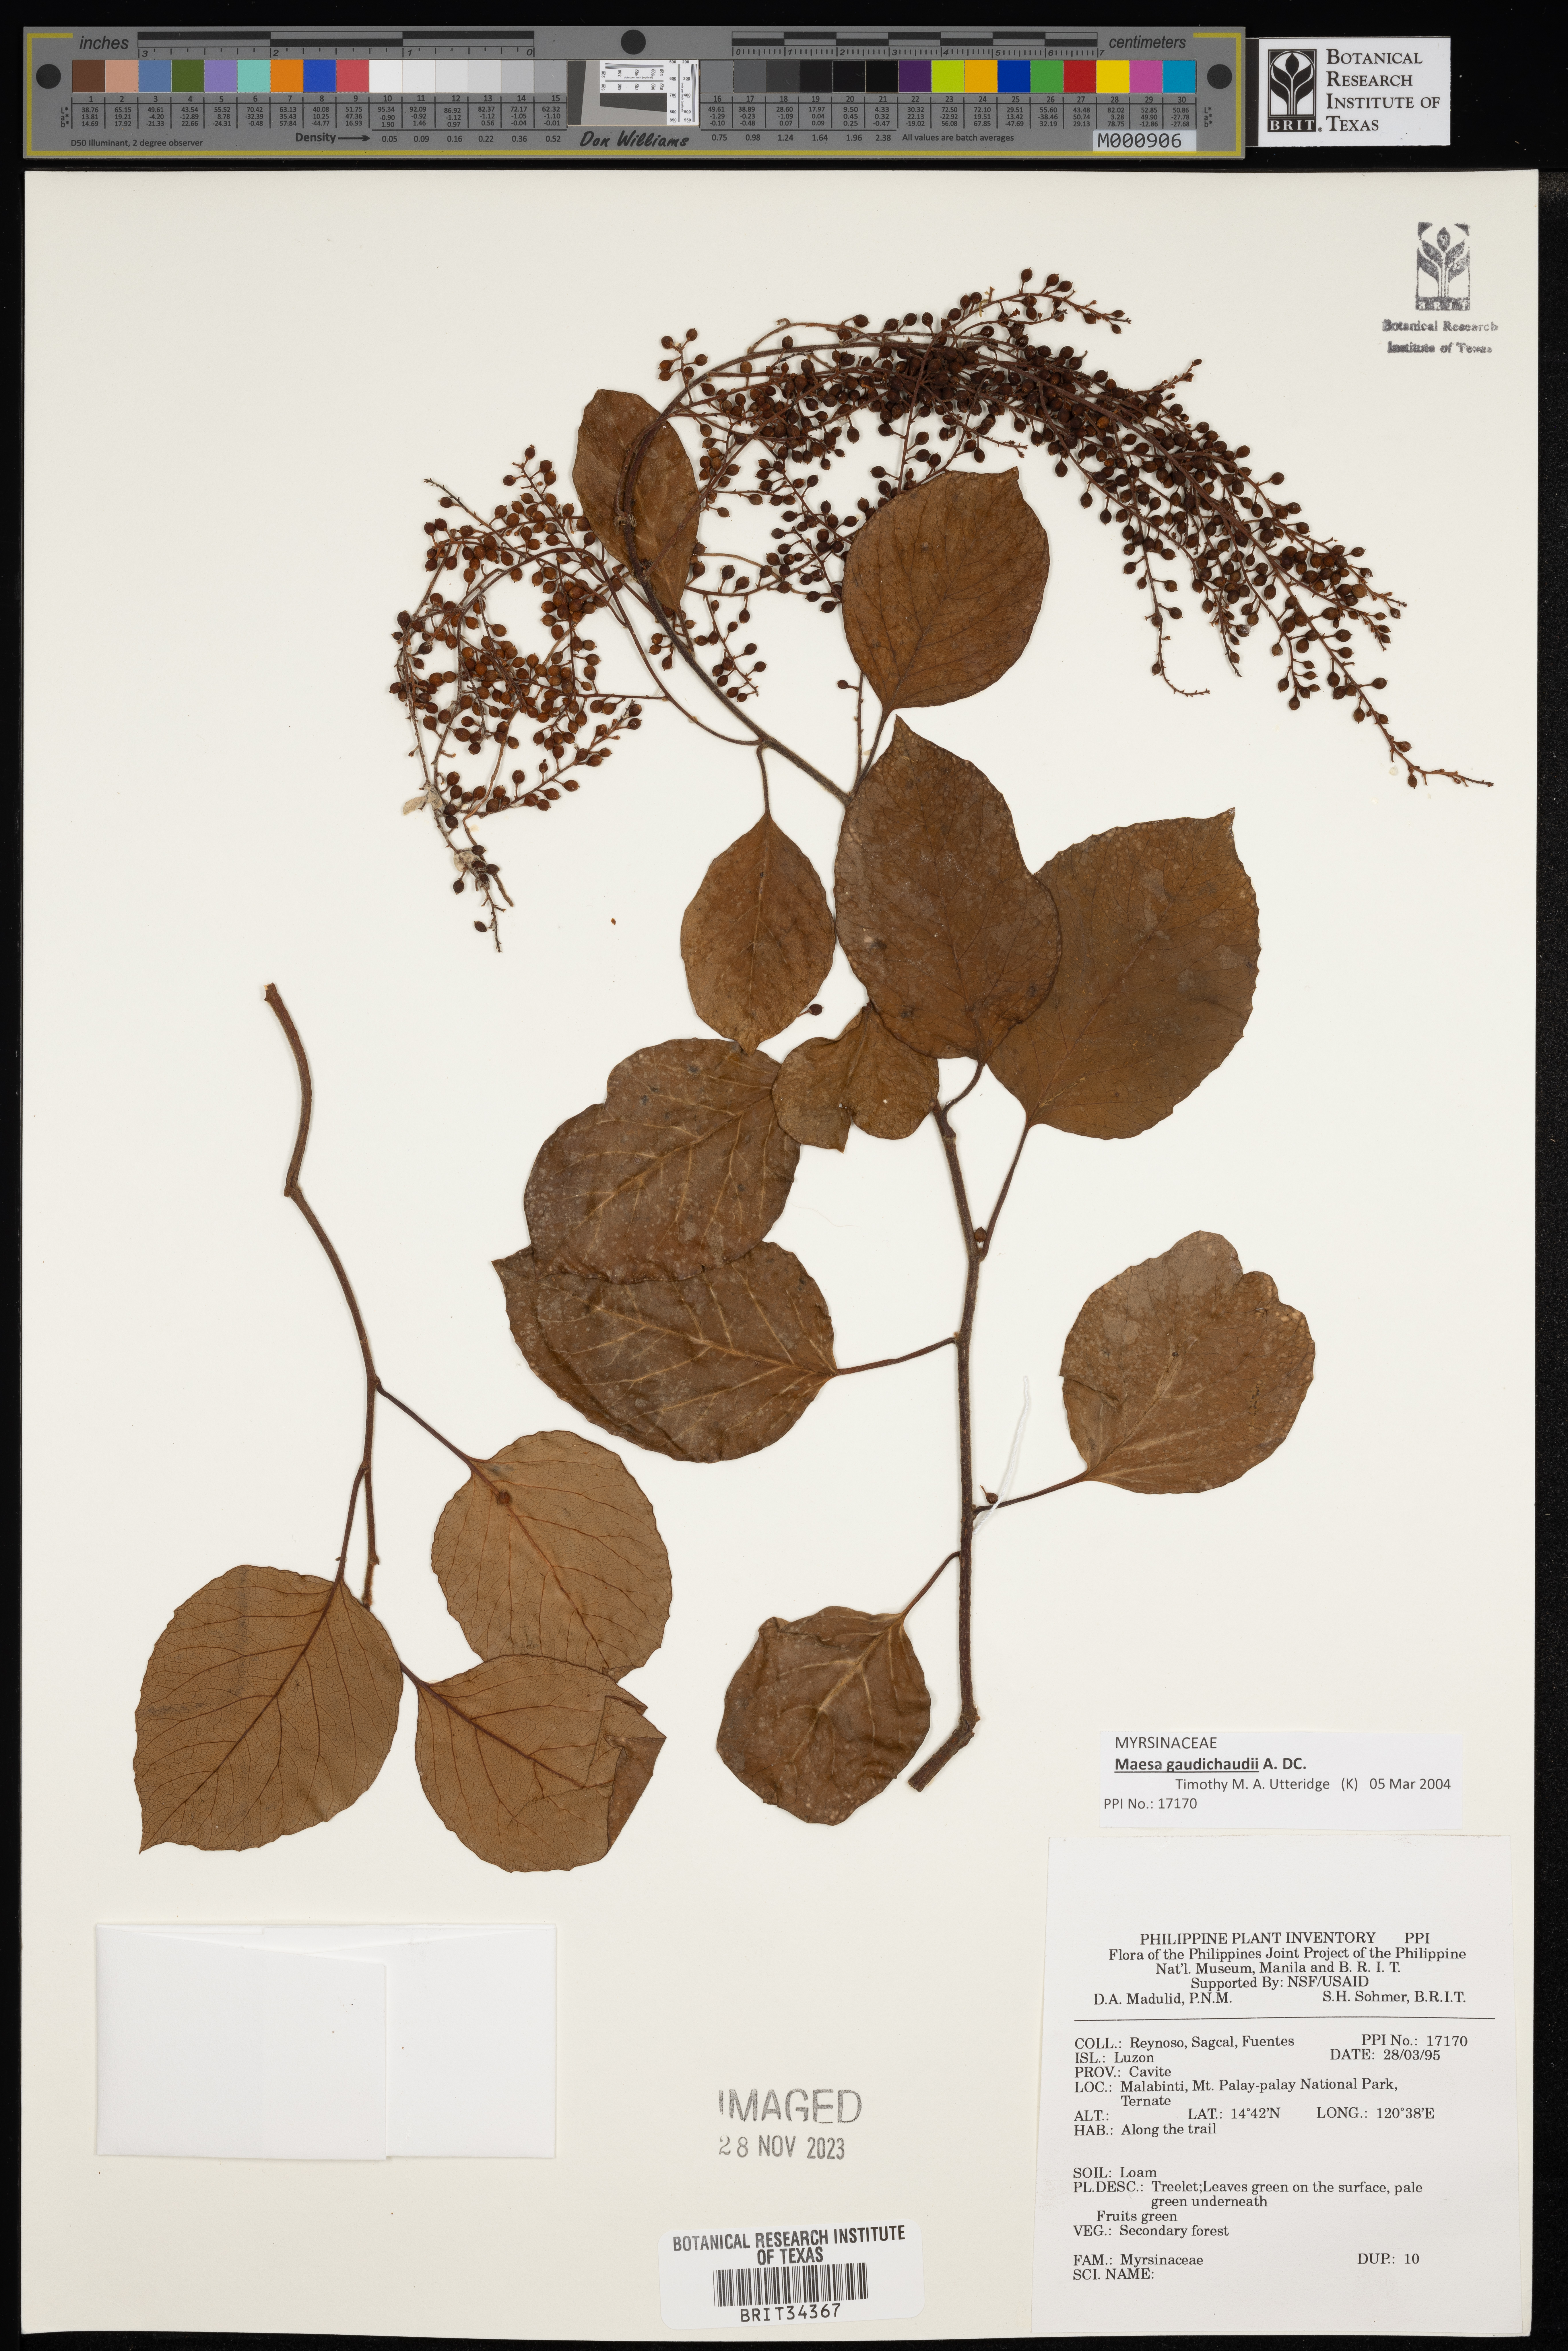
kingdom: Plantae
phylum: Tracheophyta
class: Magnoliopsida
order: Ericales
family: Primulaceae
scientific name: Primulaceae
